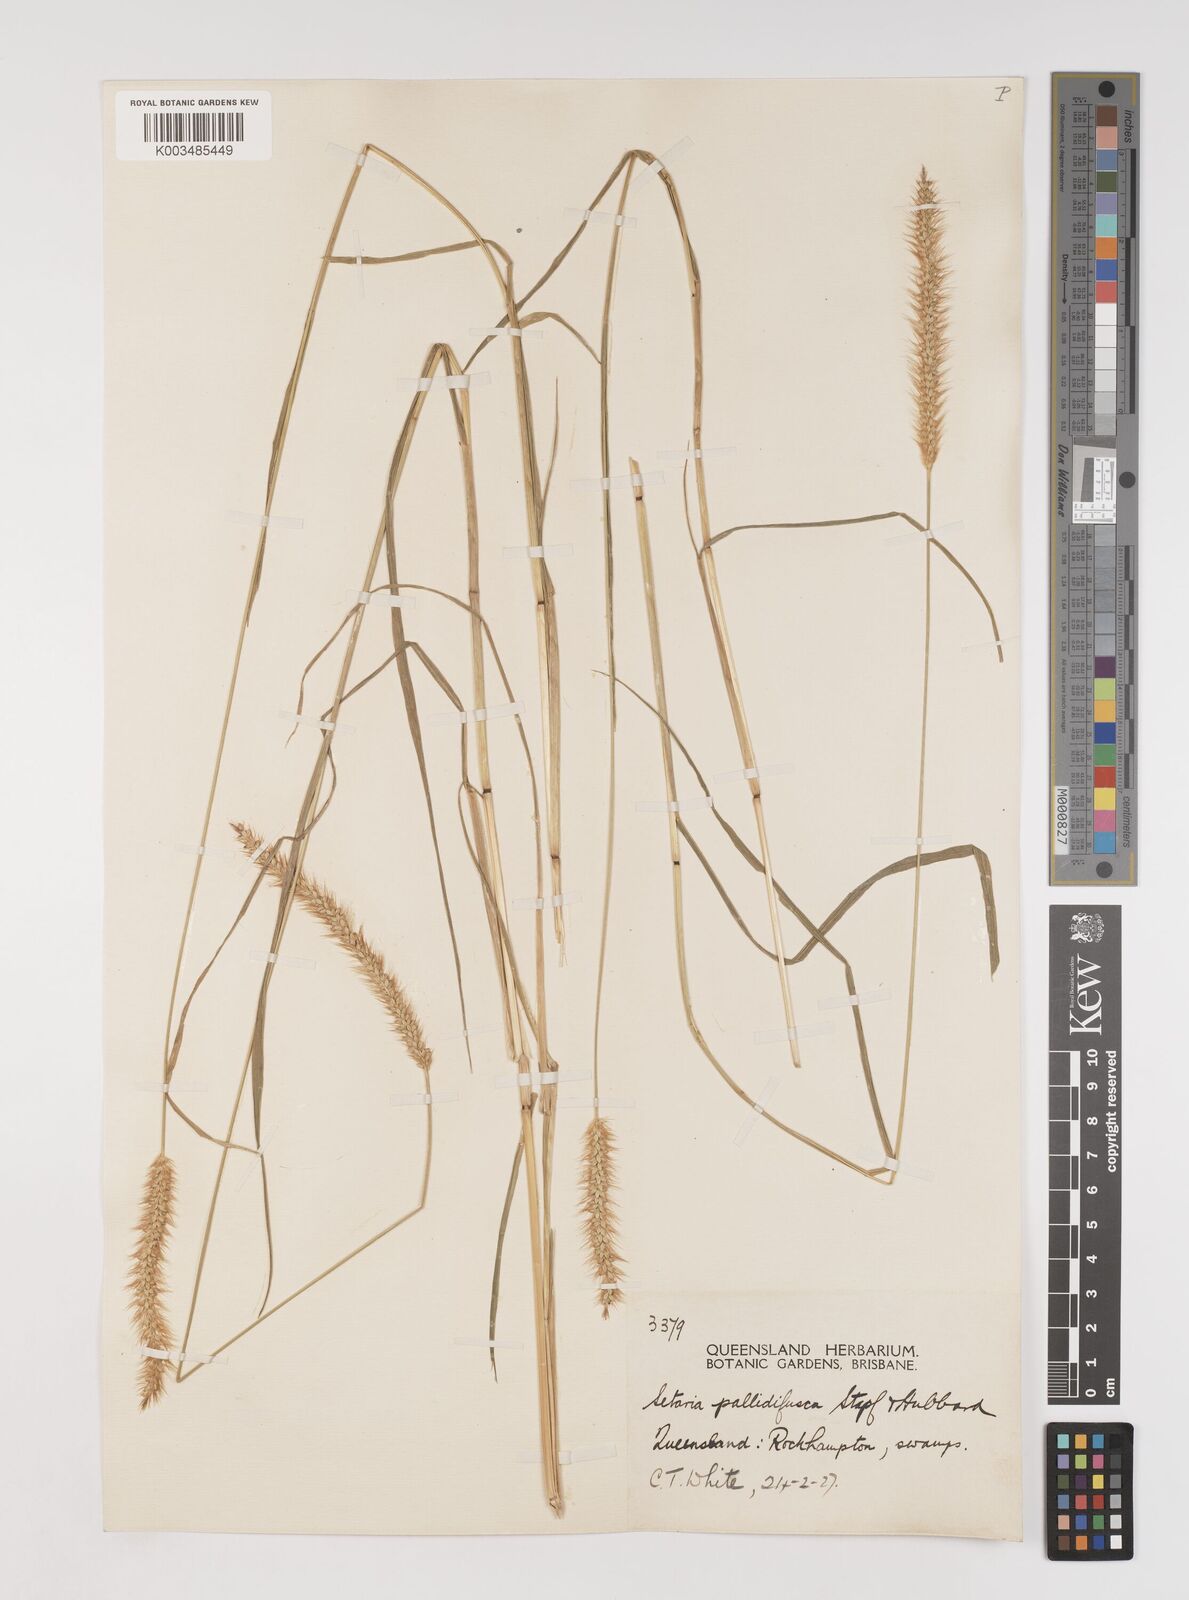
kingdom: Plantae
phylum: Tracheophyta
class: Liliopsida
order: Poales
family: Poaceae
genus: Setaria
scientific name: Setaria pumila
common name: Yellow bristle-grass
